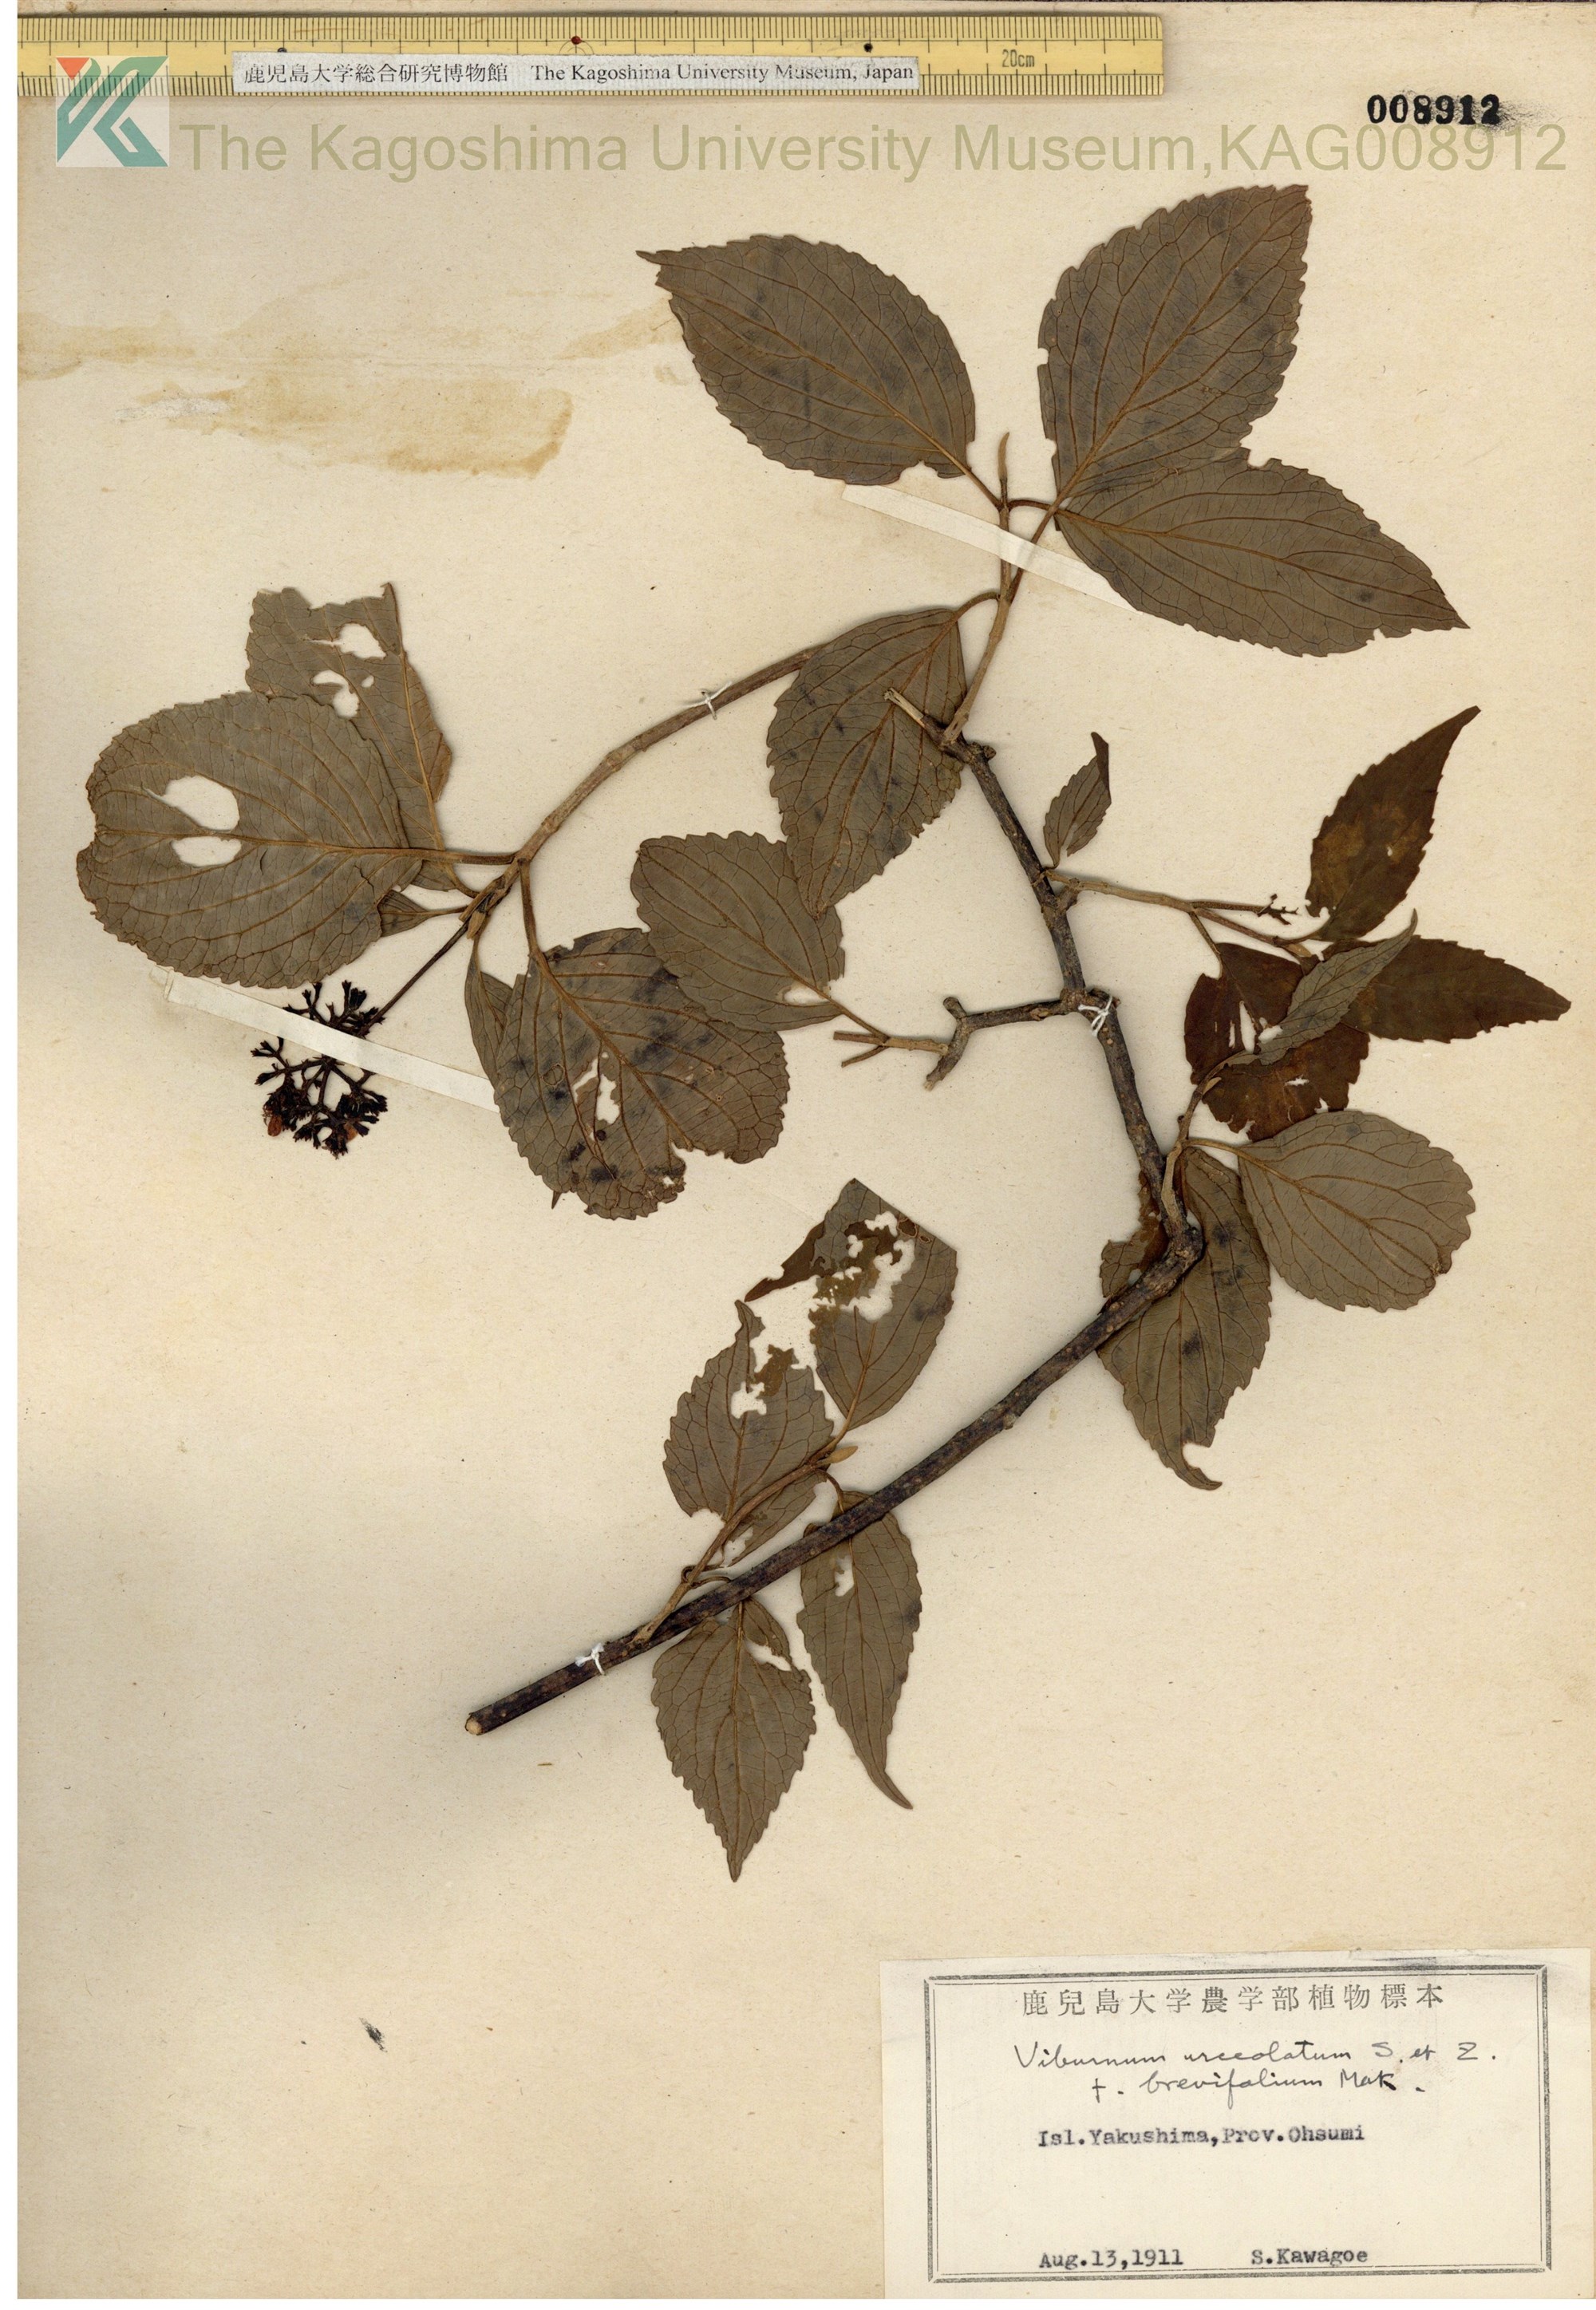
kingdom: Plantae
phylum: Tracheophyta
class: Magnoliopsida
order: Dipsacales
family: Viburnaceae
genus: Viburnum
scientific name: Viburnum urceolatum
